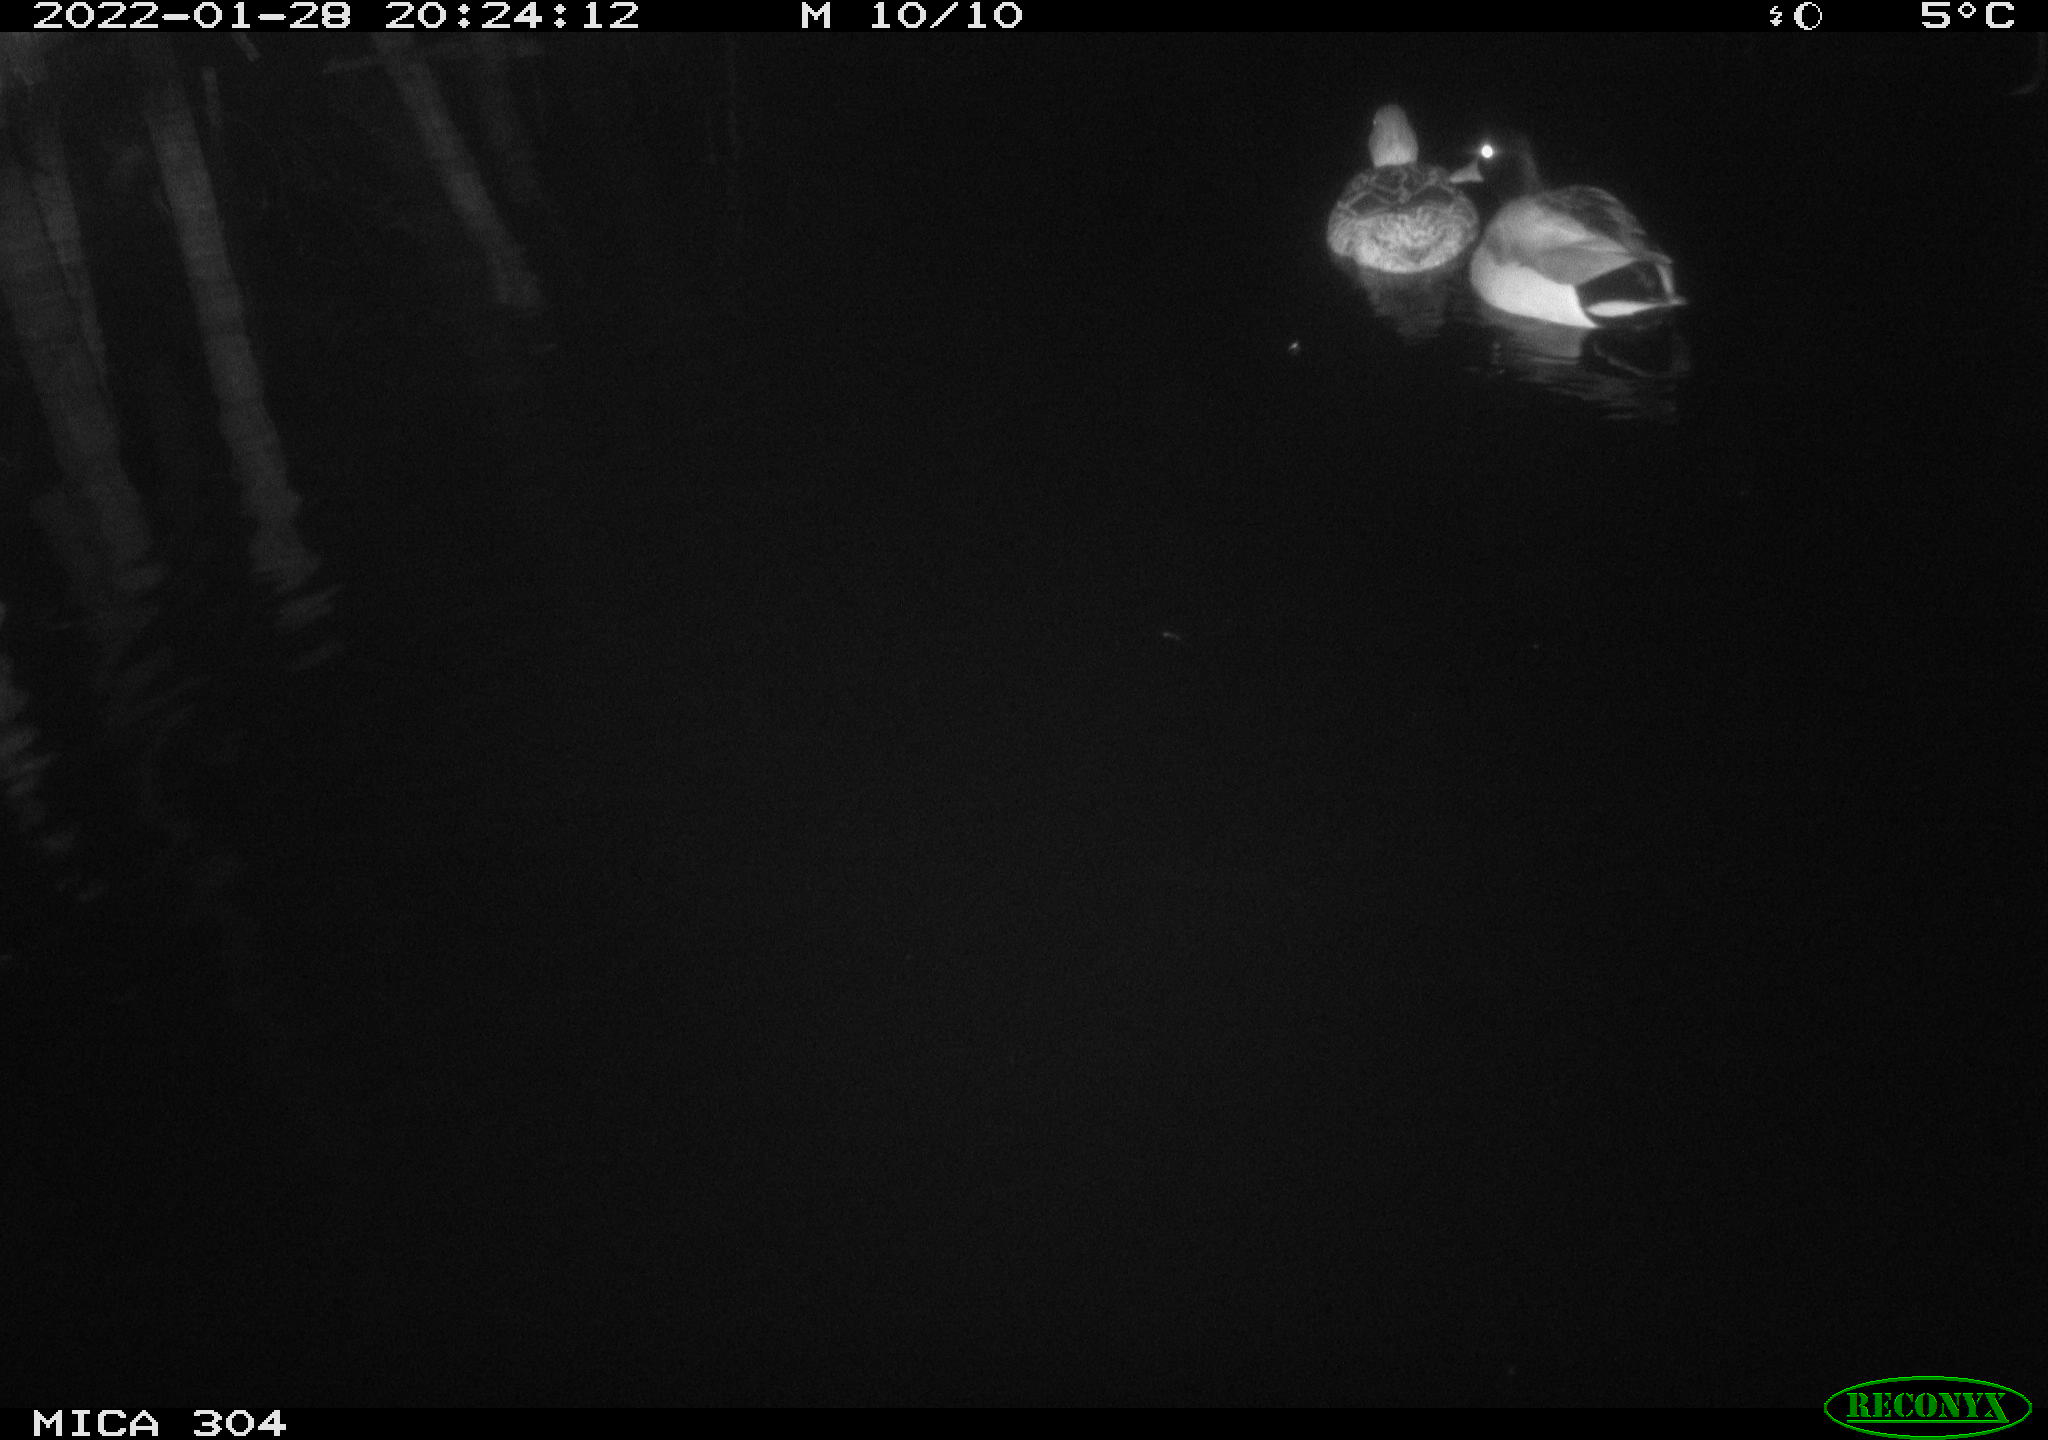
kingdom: Animalia
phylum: Chordata
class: Aves
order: Anseriformes
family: Anatidae
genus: Anas
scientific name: Anas
